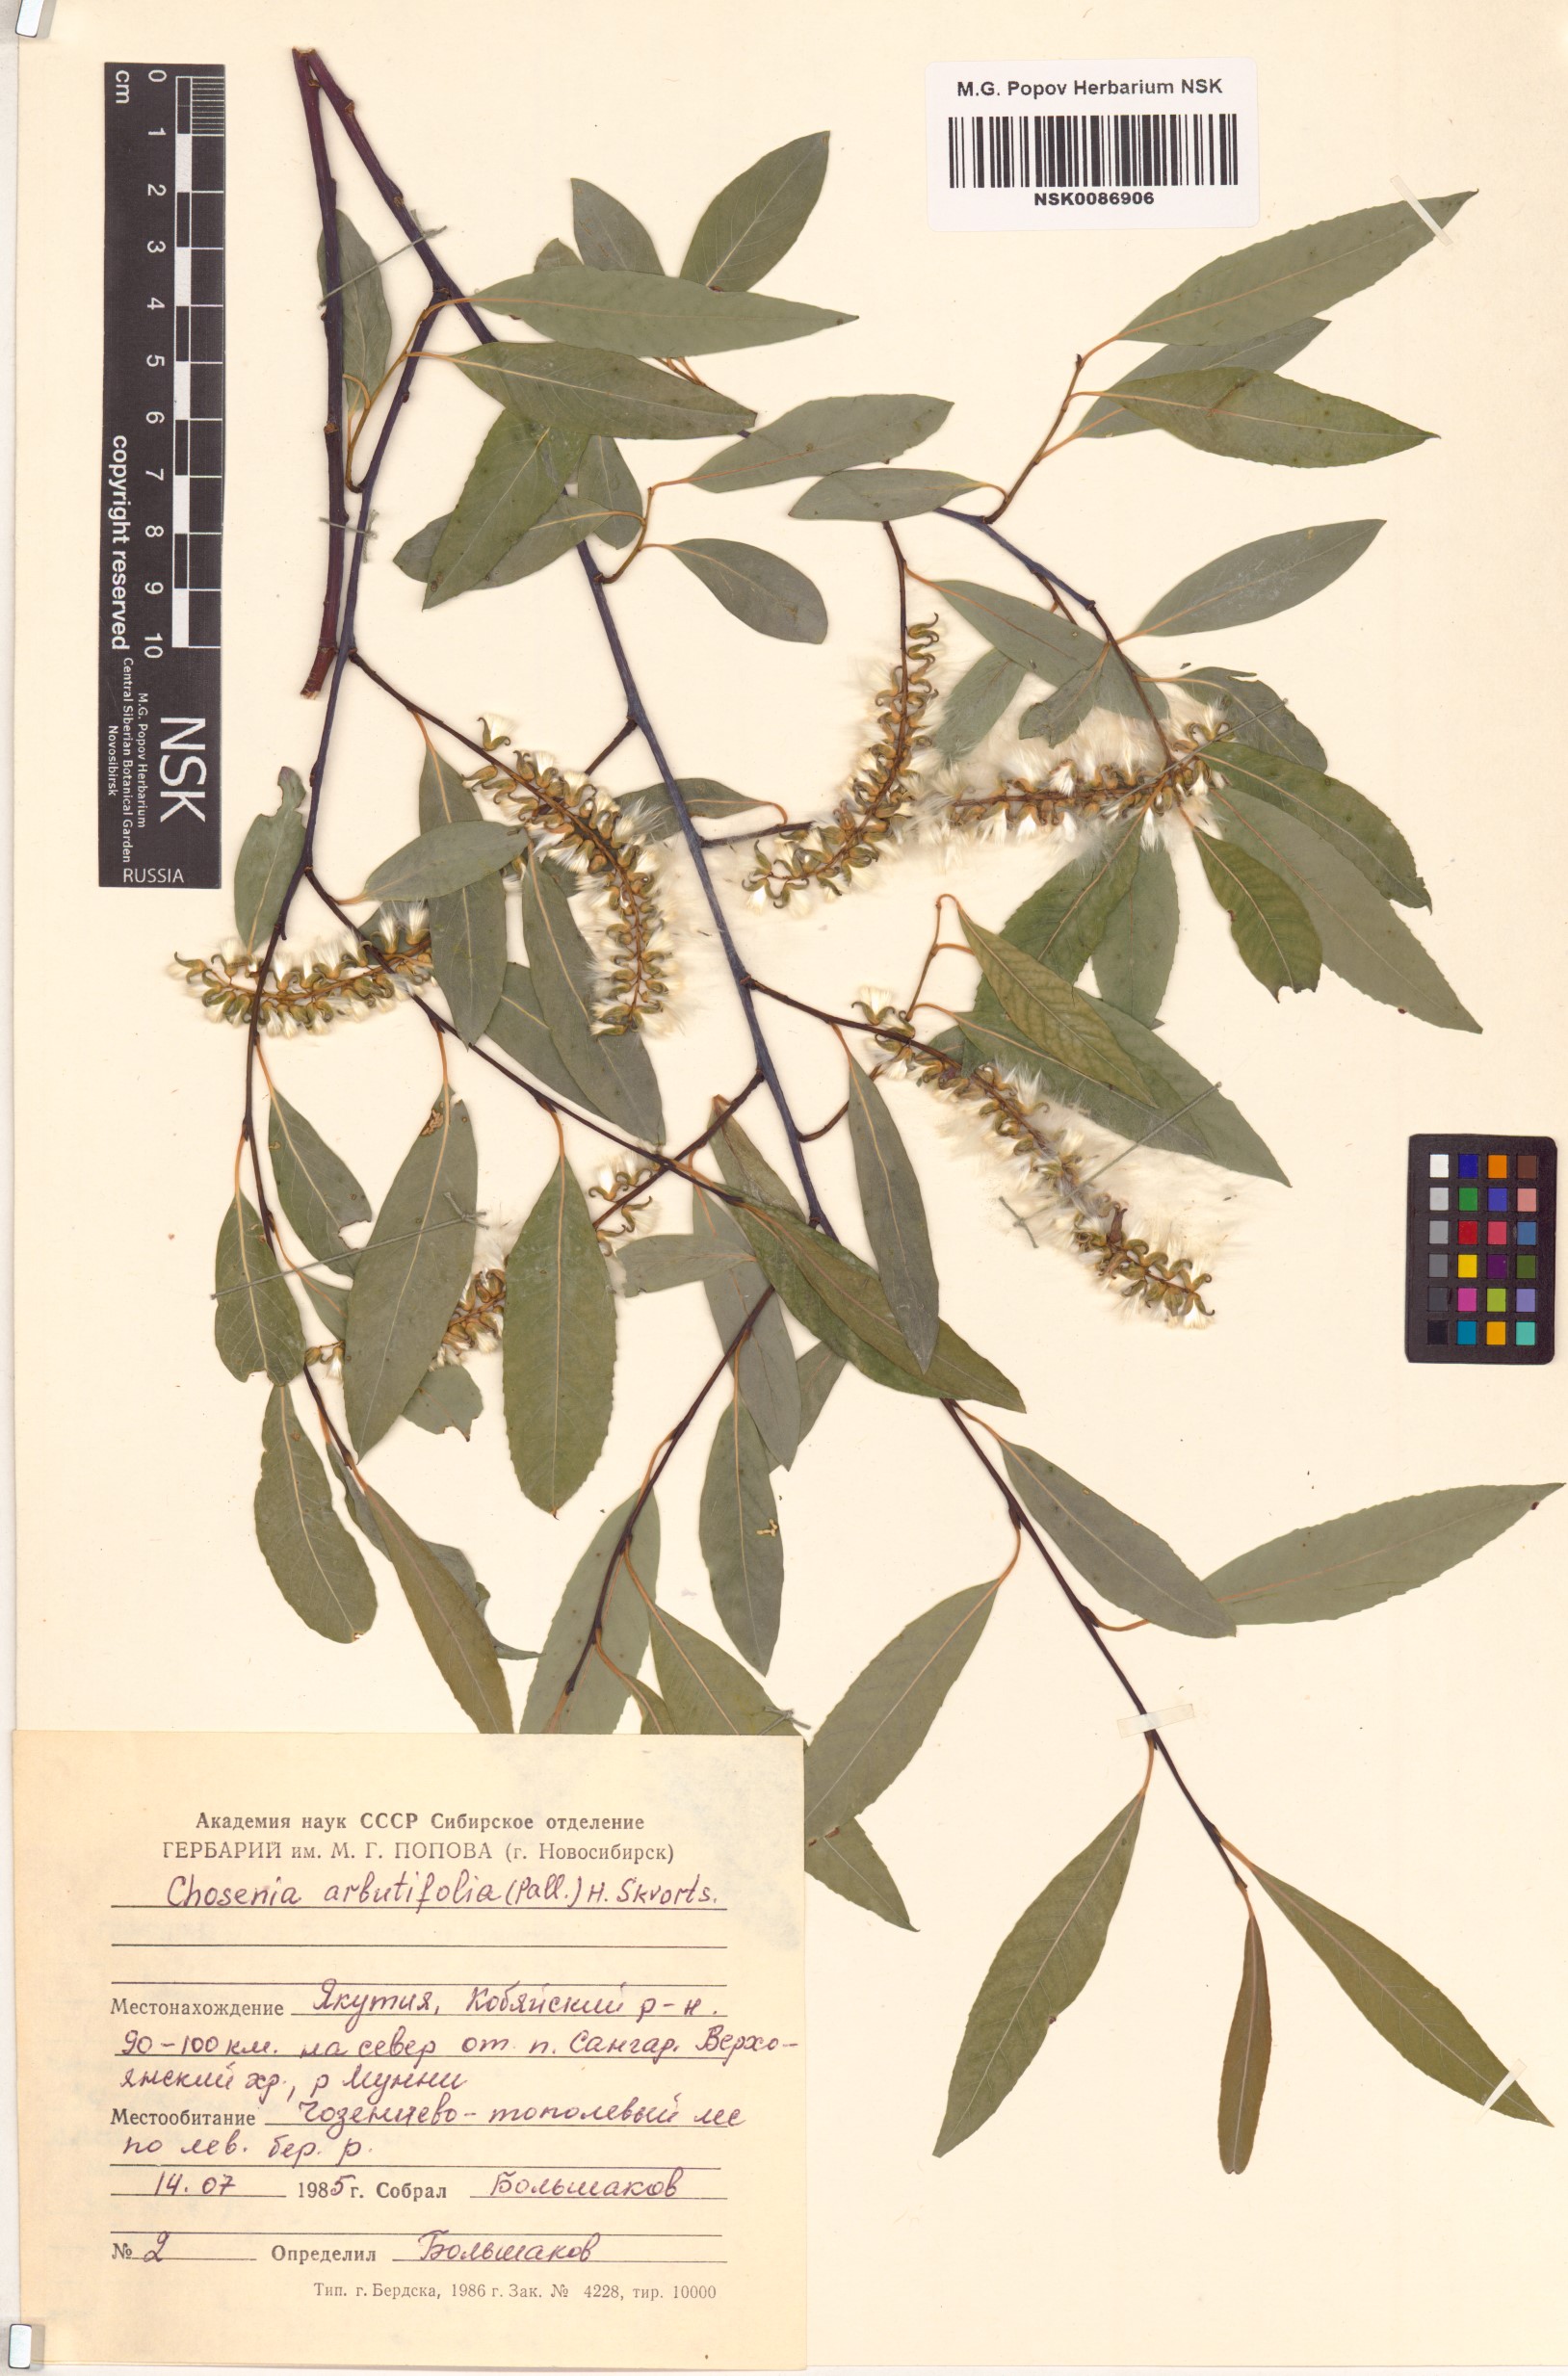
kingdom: Plantae
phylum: Tracheophyta
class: Magnoliopsida
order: Malpighiales
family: Salicaceae
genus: Chosenia
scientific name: Chosenia arbutifolia
